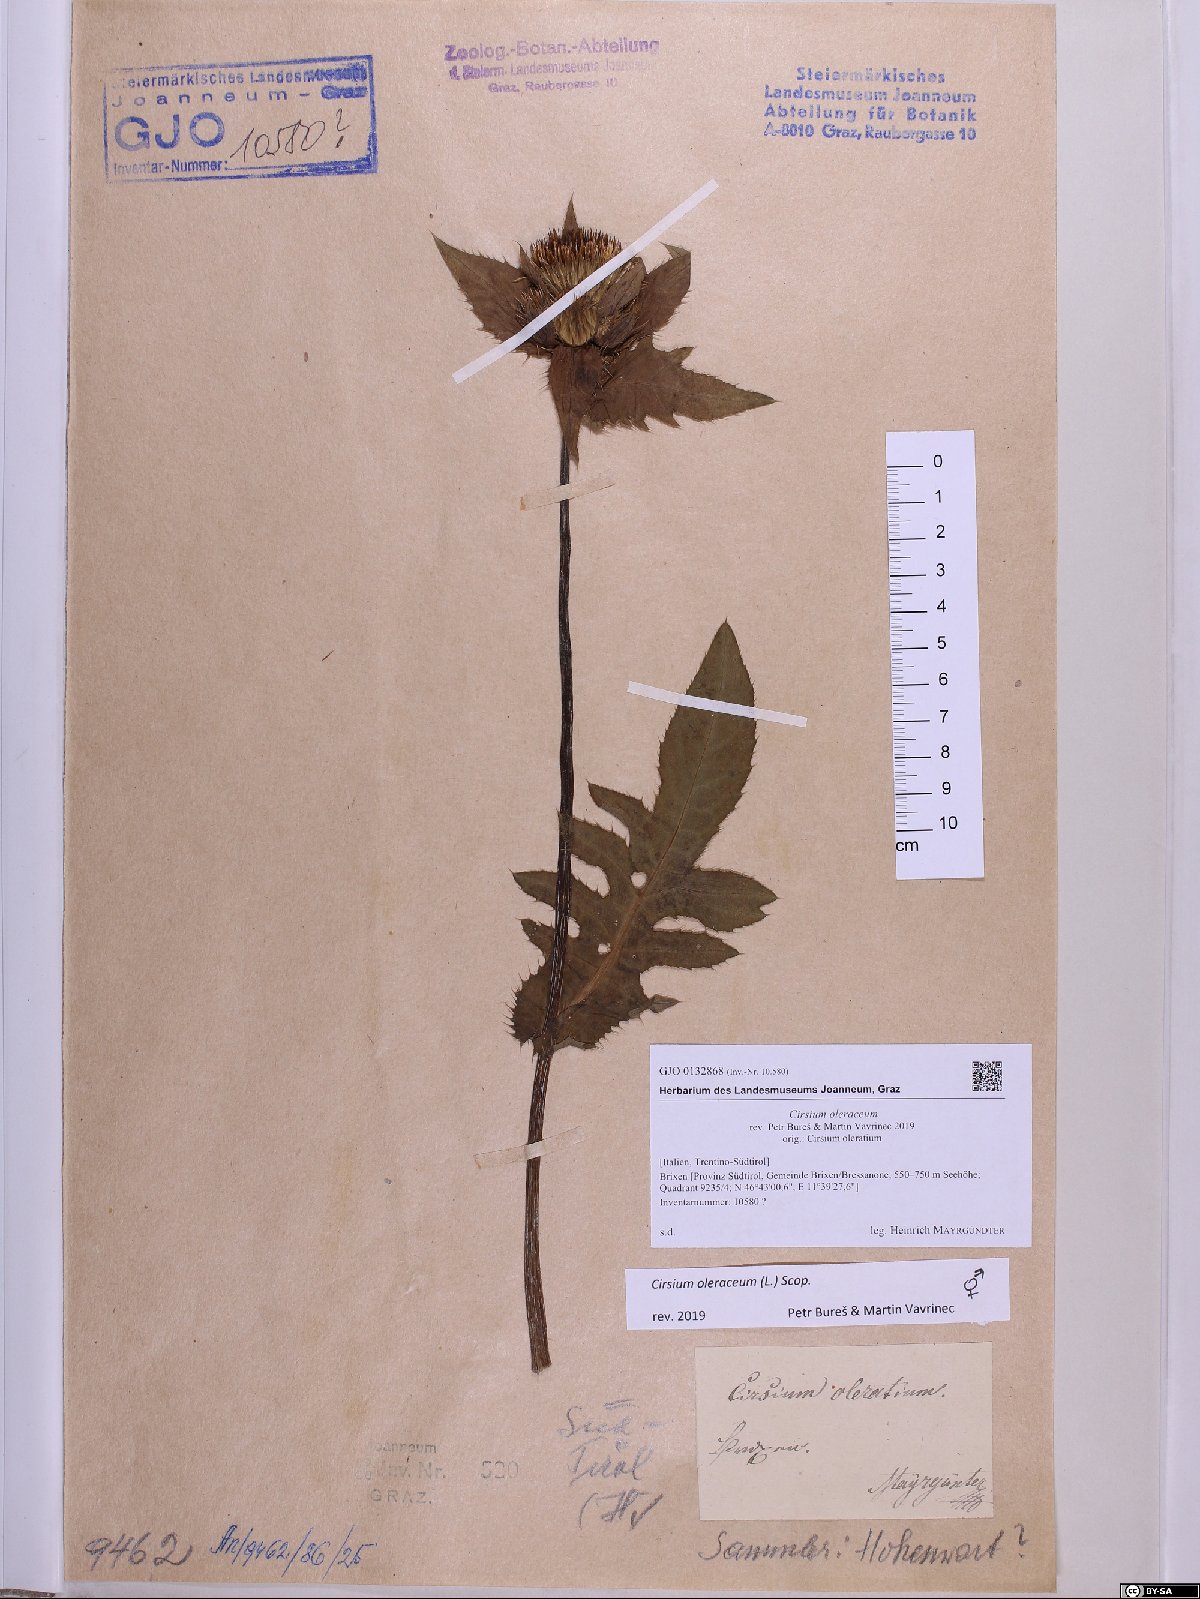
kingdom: Plantae
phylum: Tracheophyta
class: Magnoliopsida
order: Asterales
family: Asteraceae
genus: Cirsium
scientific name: Cirsium oleraceum
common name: Cabbage thistle
